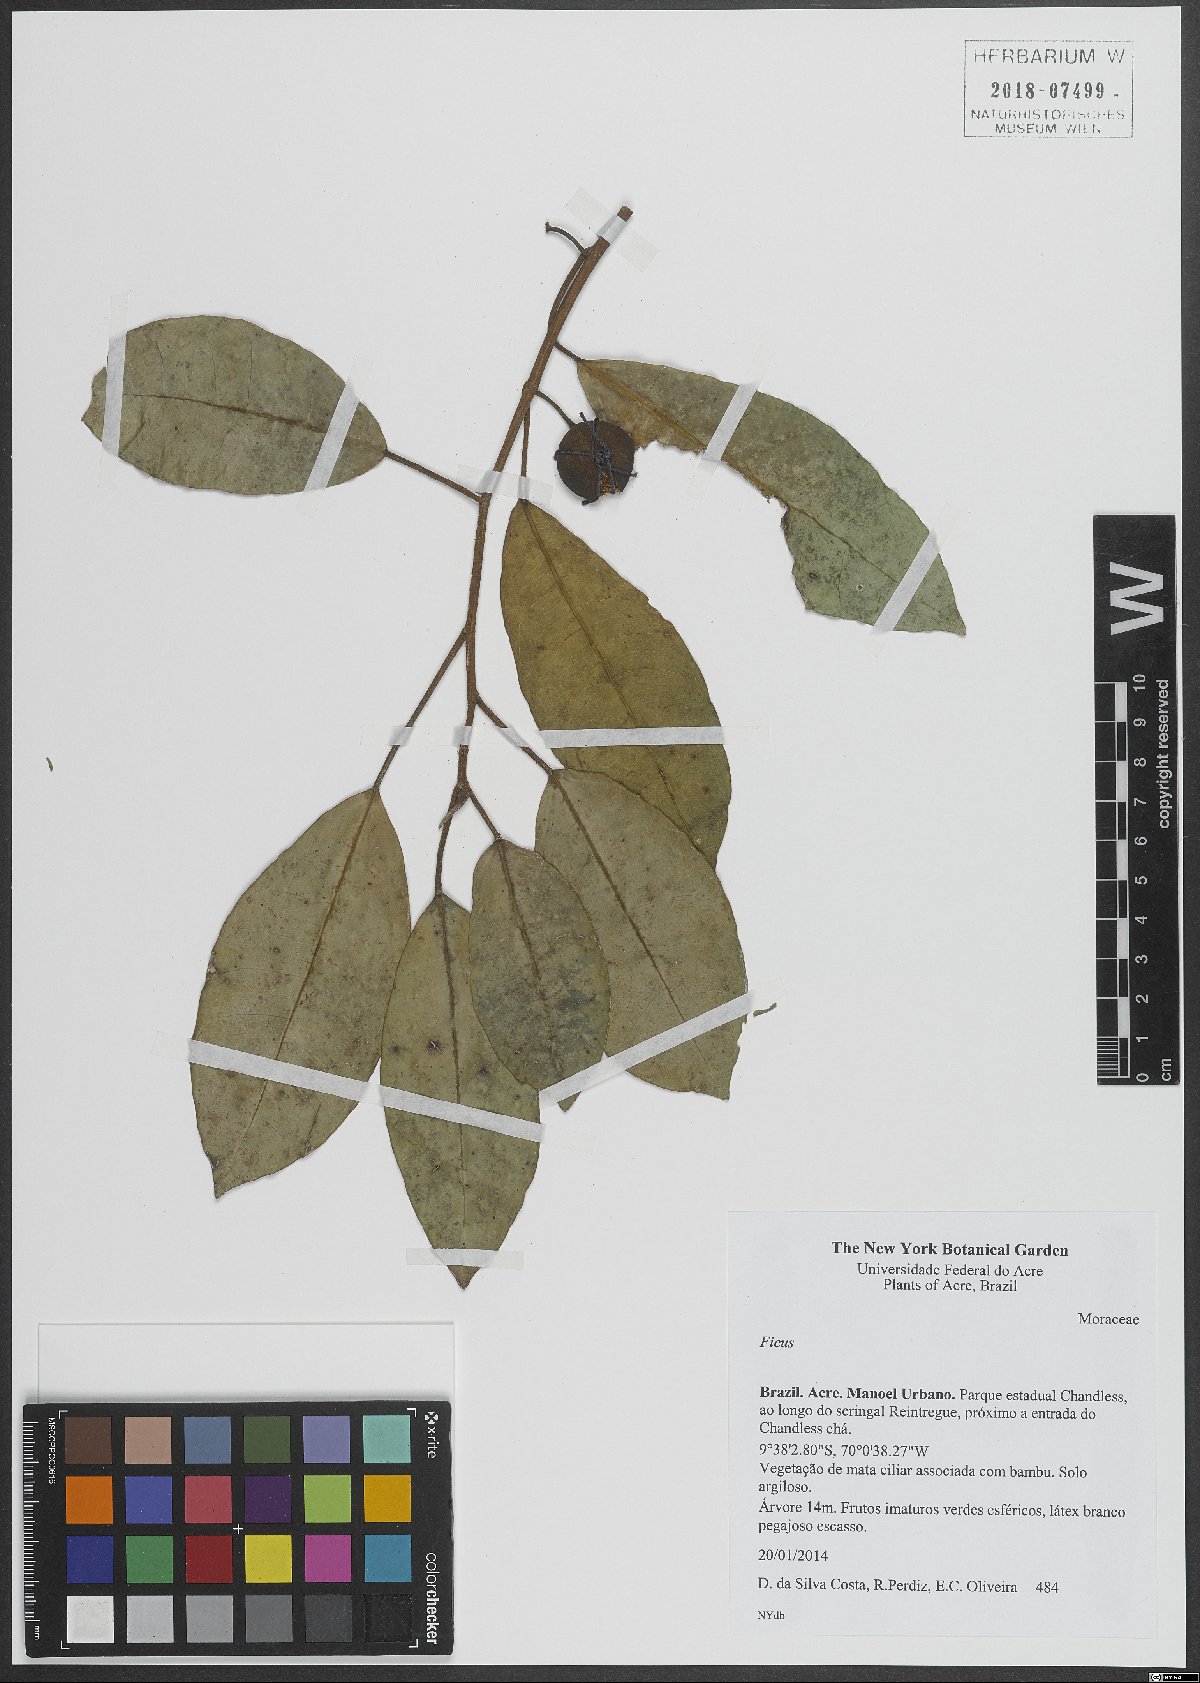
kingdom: Plantae
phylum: Tracheophyta
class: Magnoliopsida
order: Rosales
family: Moraceae
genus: Ficus
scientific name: Ficus
